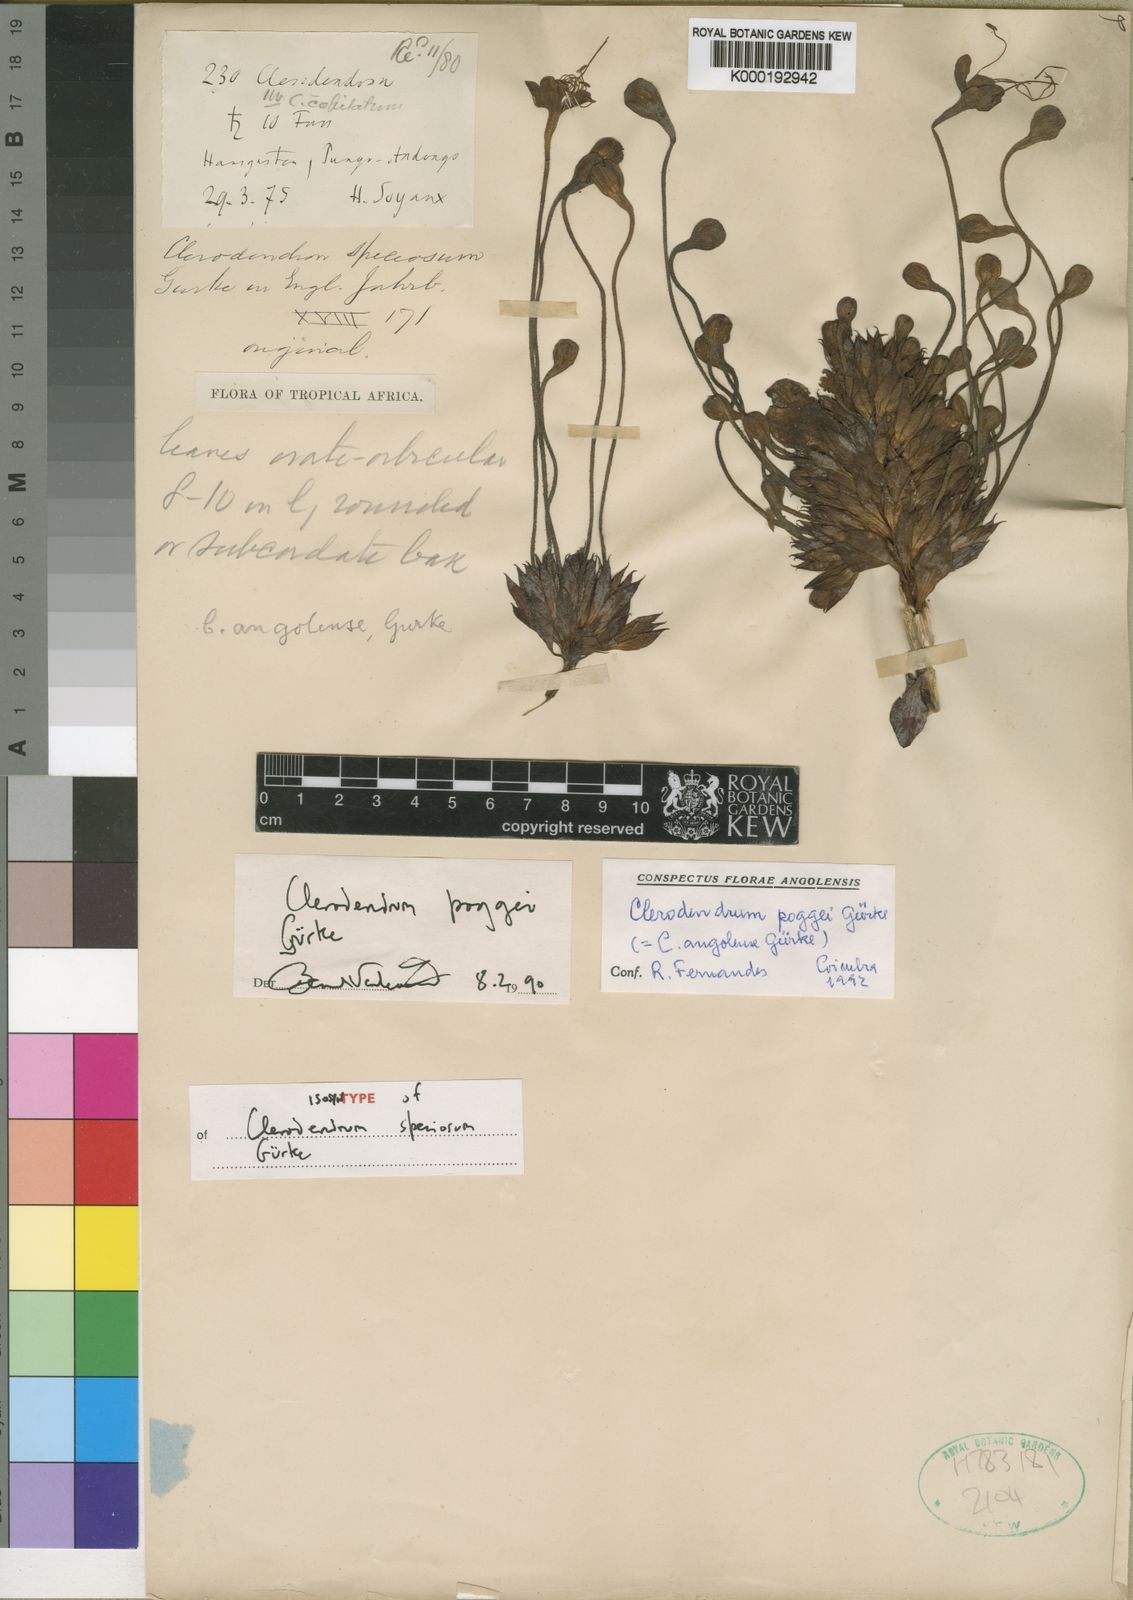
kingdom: Plantae
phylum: Tracheophyta
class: Magnoliopsida
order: Lamiales
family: Lamiaceae
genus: Clerodendrum
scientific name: Clerodendrum
